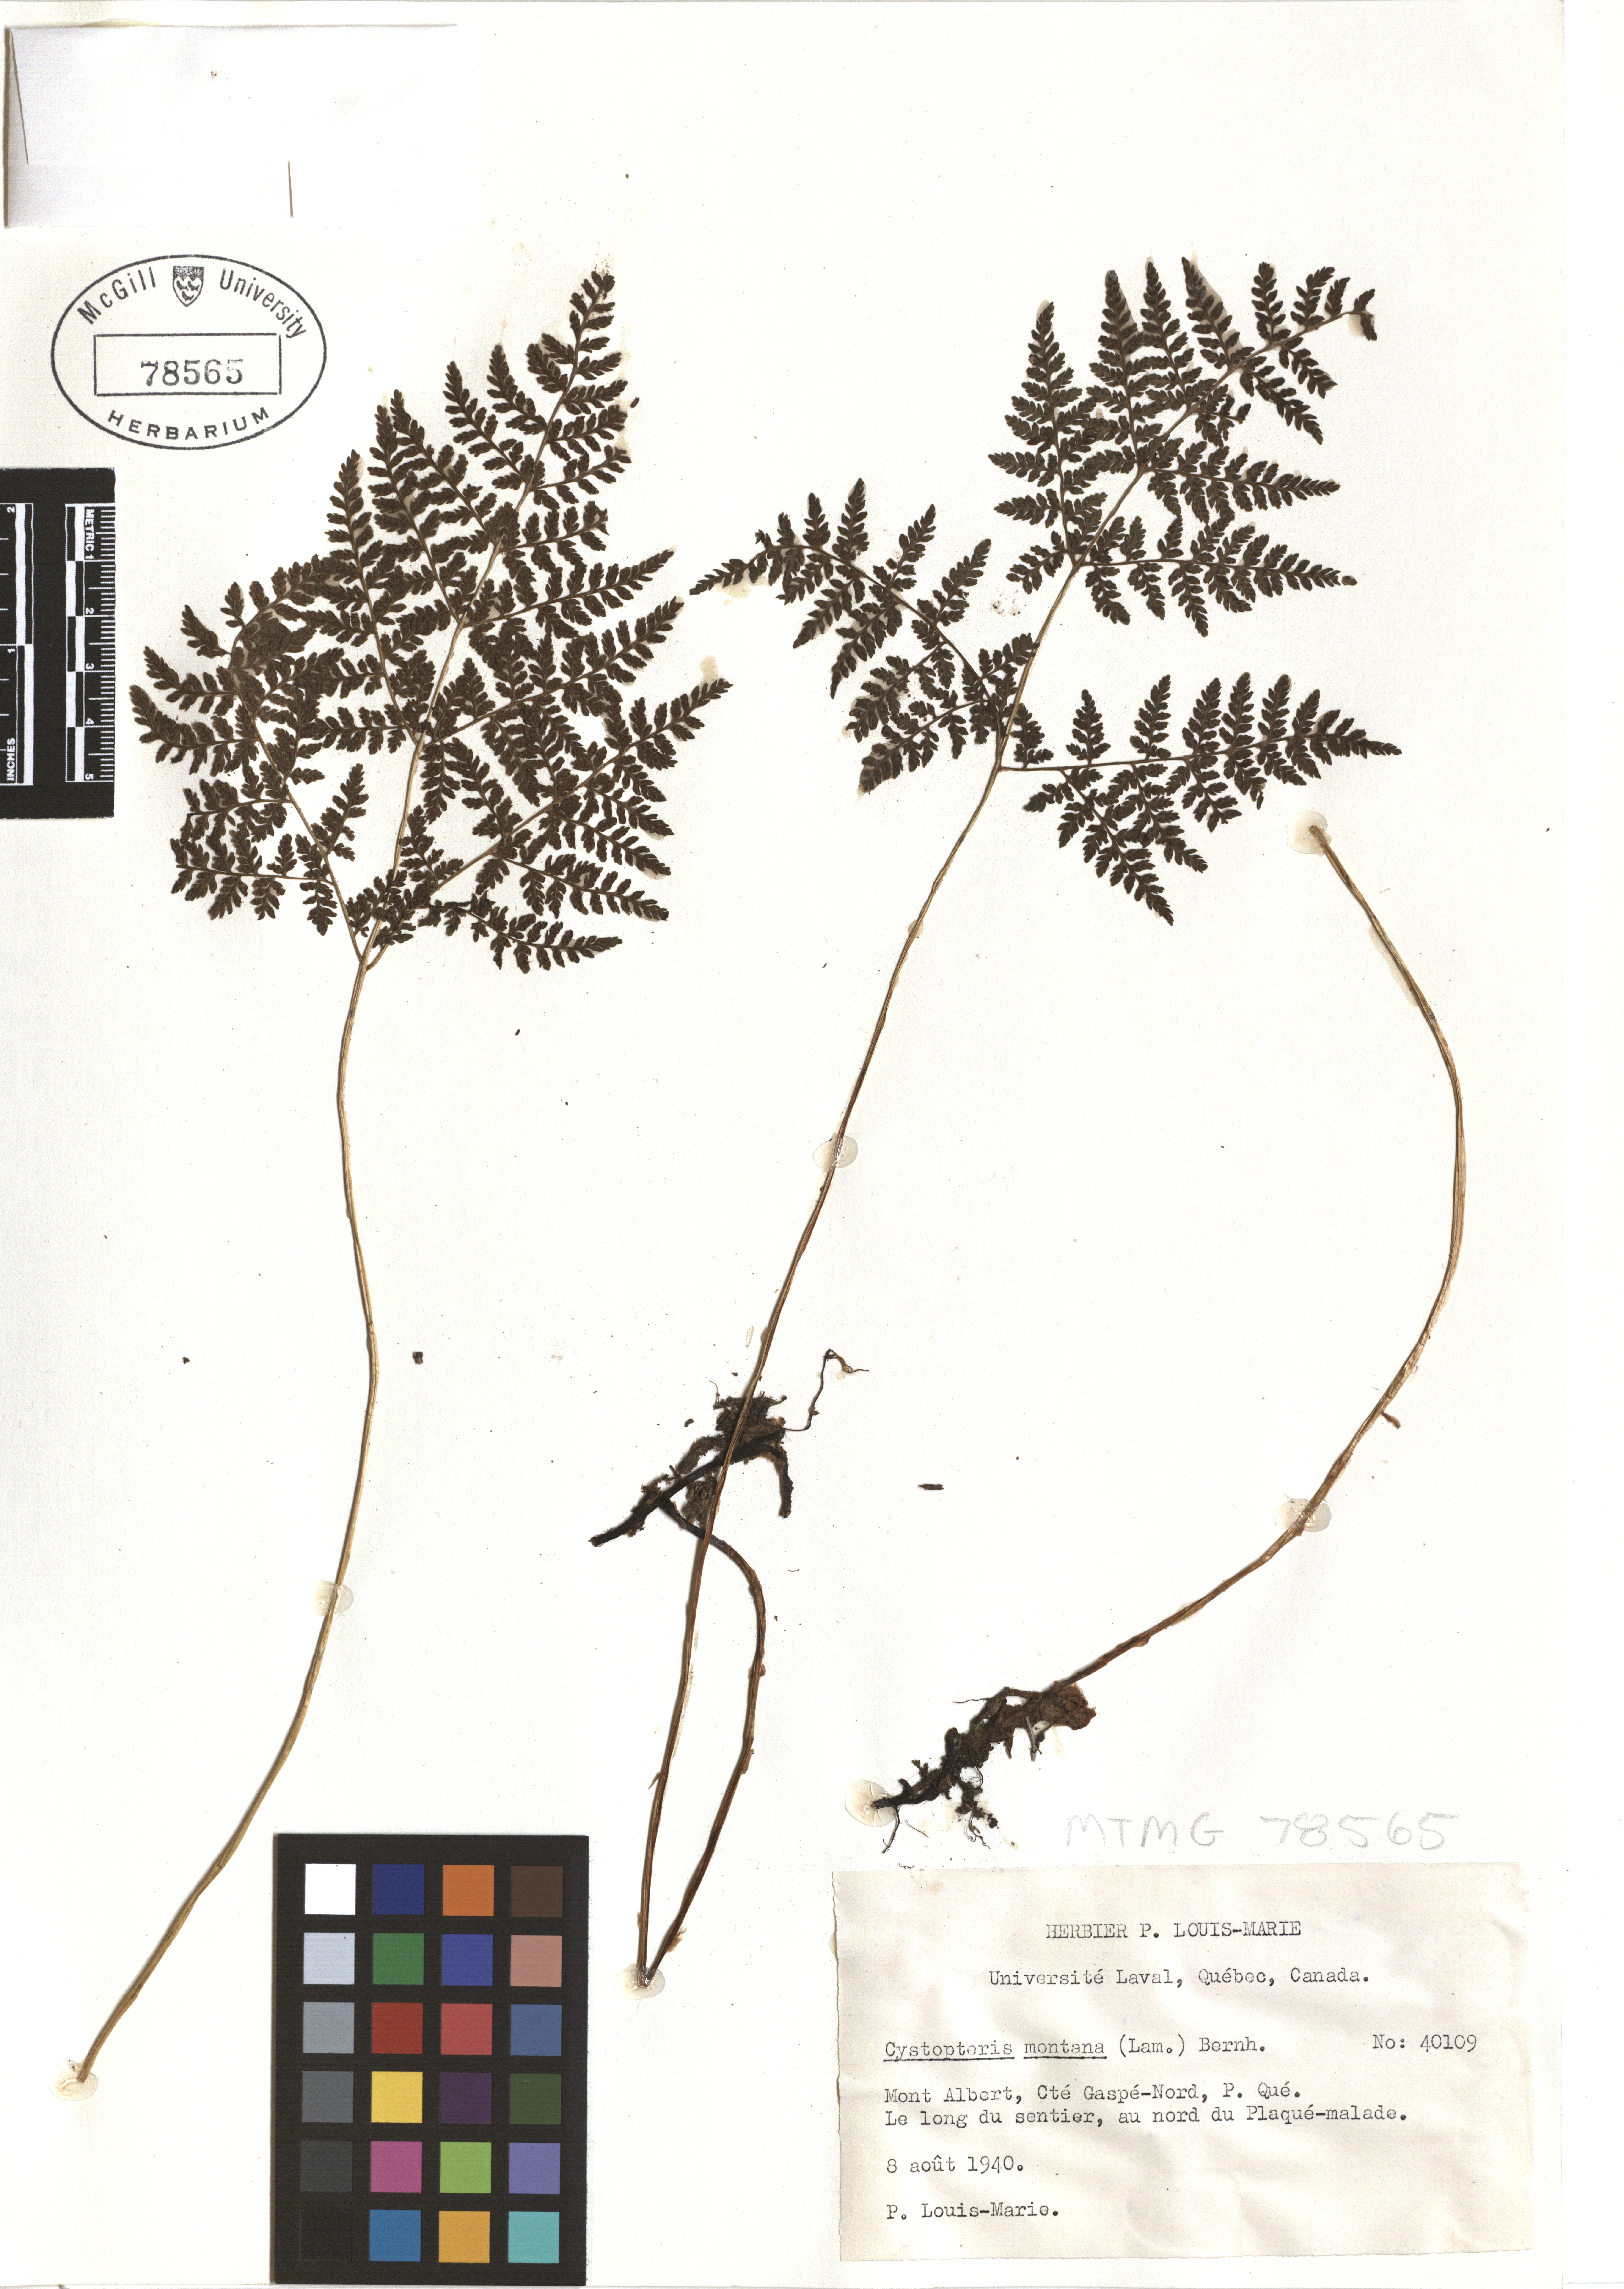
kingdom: Plantae
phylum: Tracheophyta
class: Polypodiopsida
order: Polypodiales
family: Cystopteridaceae
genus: Cystopteris
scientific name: Cystopteris montana
